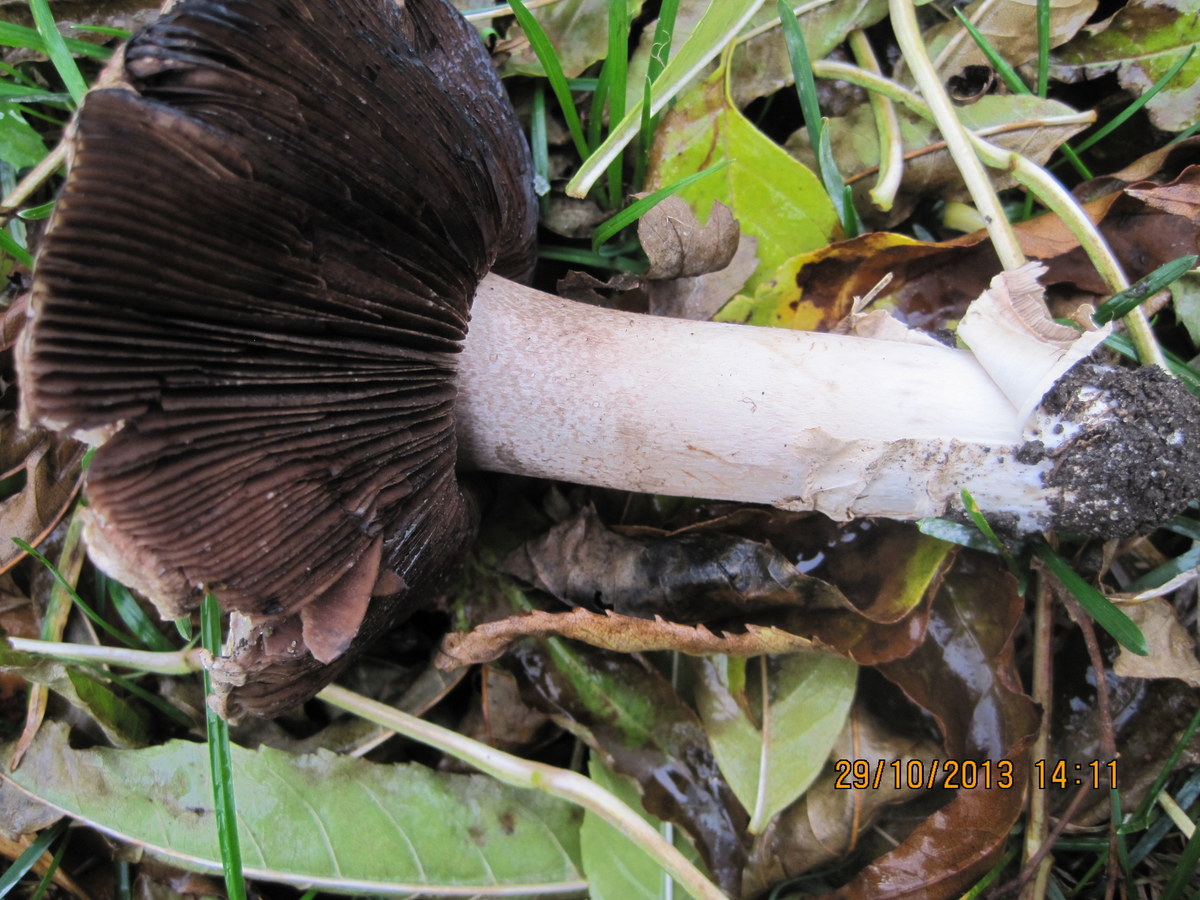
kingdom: Fungi
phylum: Basidiomycota
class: Agaricomycetes
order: Agaricales
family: Agaricaceae
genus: Agaricus
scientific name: Agaricus bernardii
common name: strandengs-champignon
